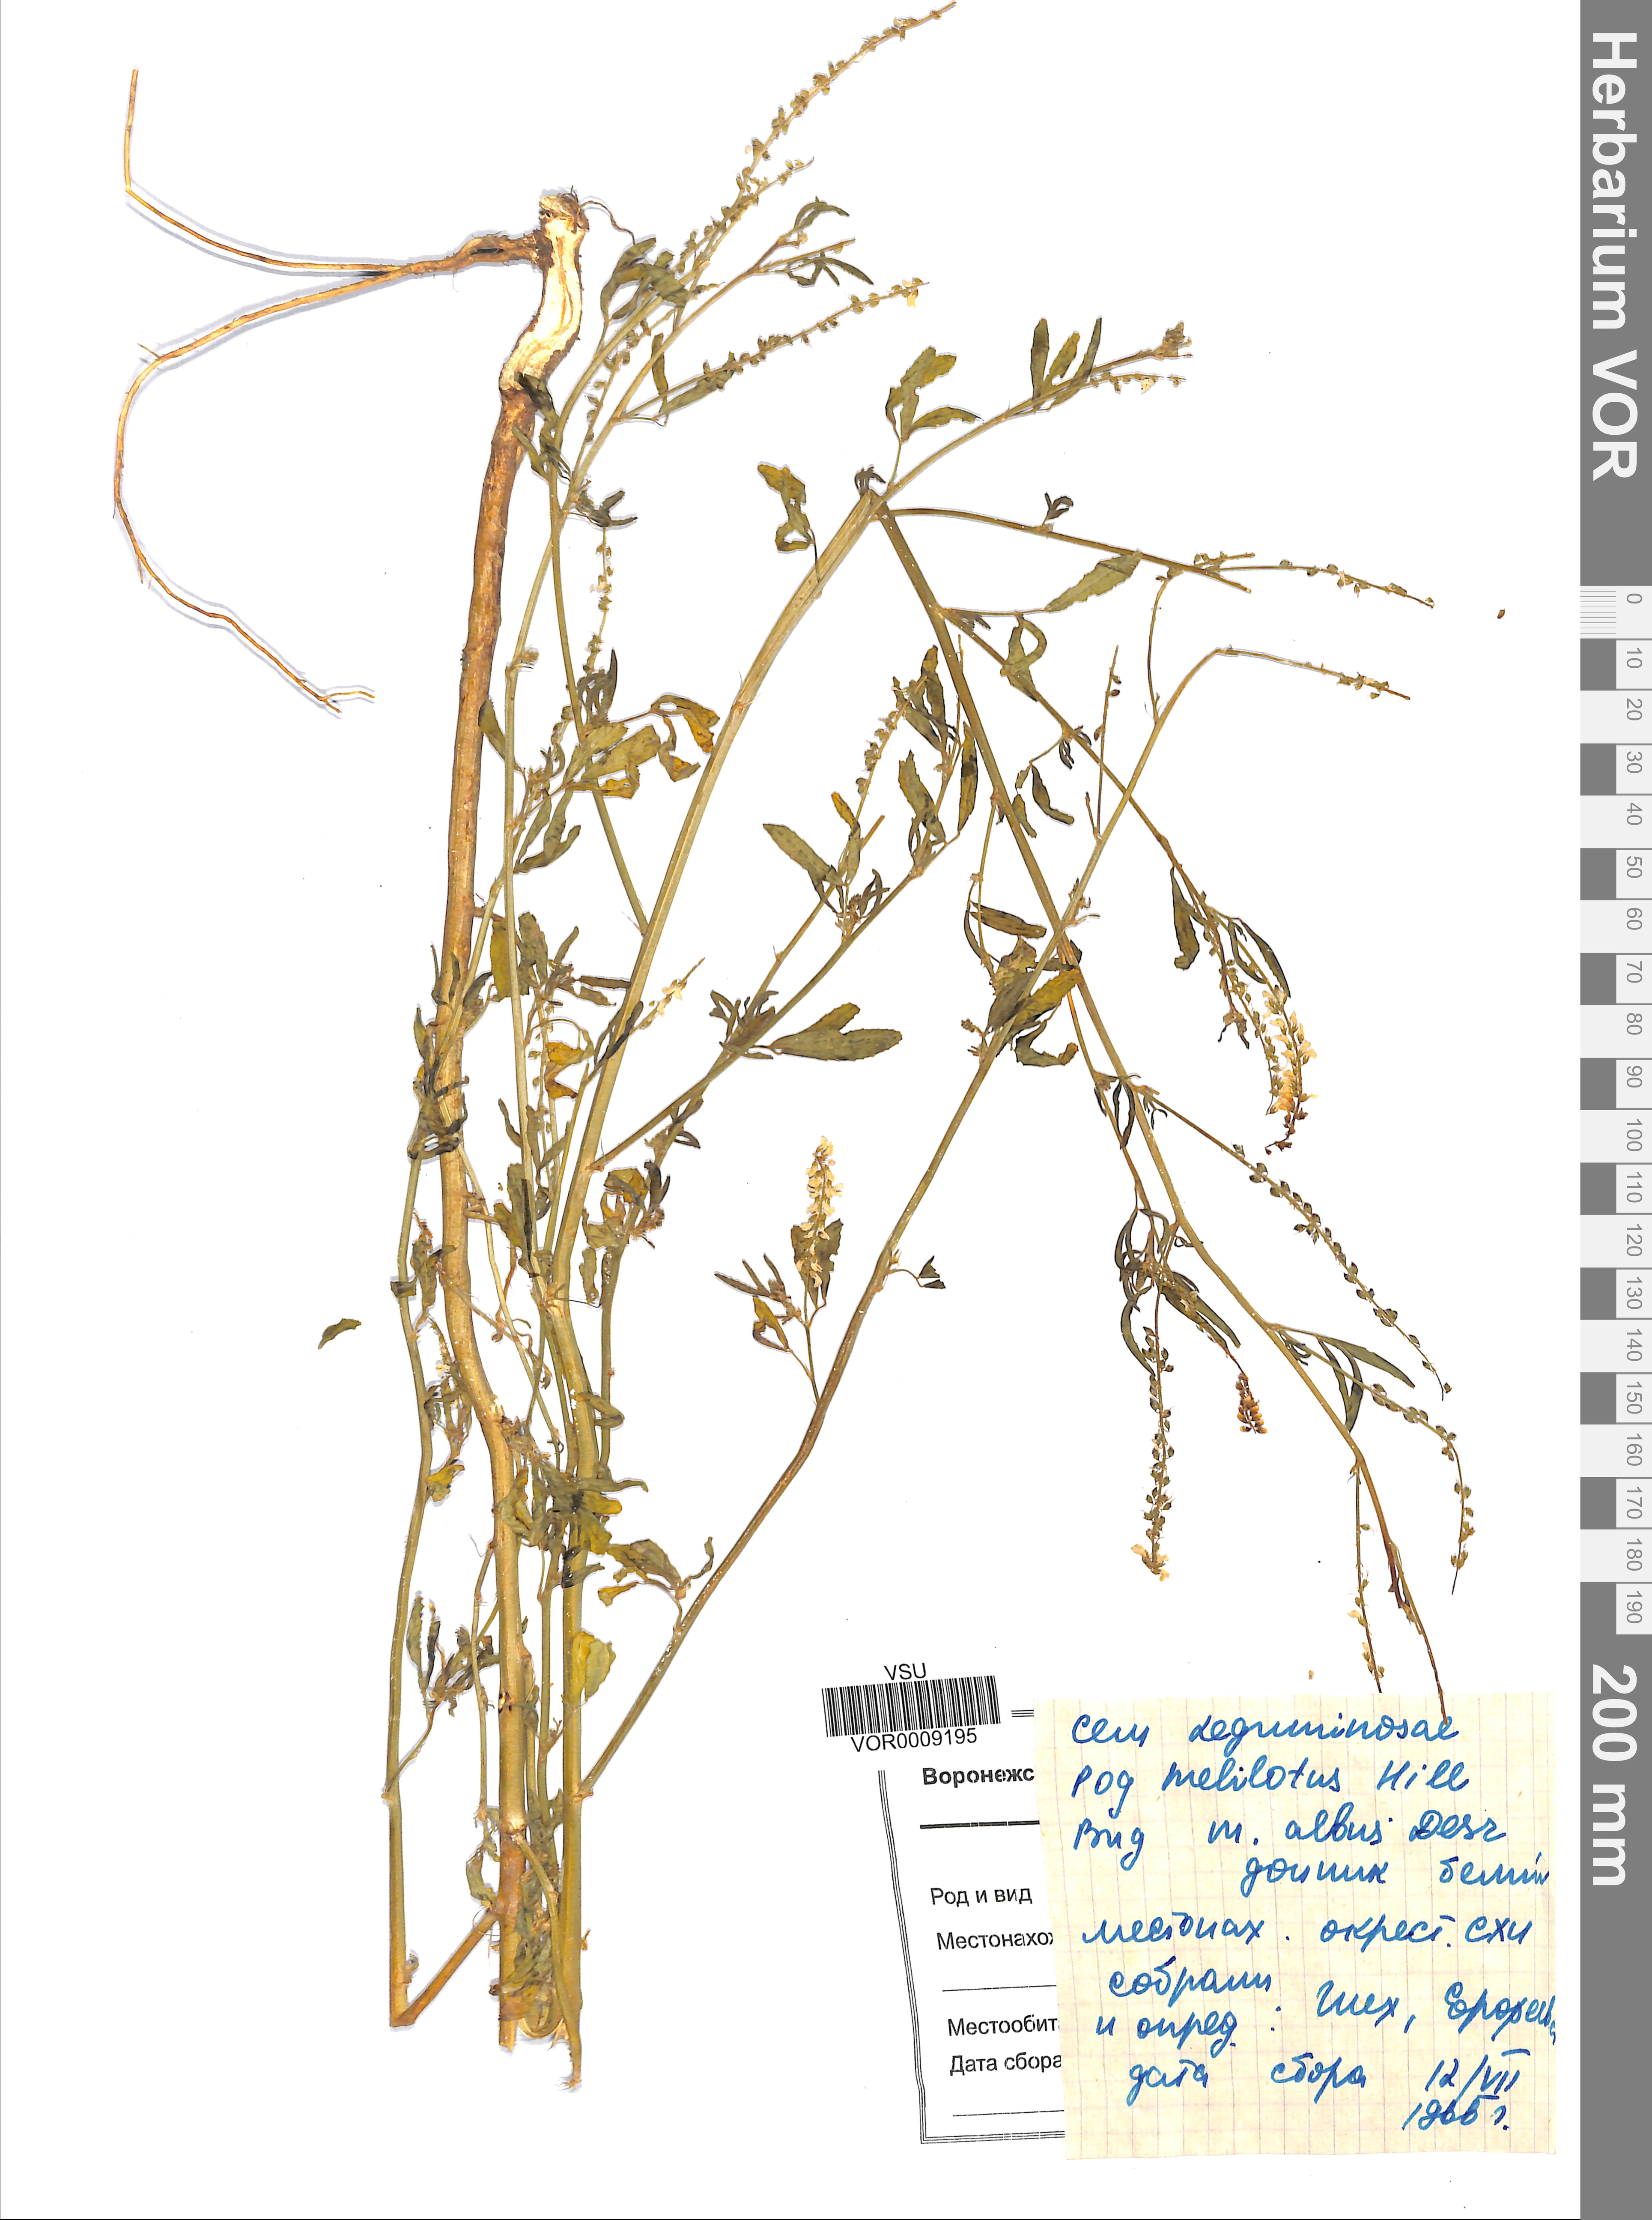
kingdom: Plantae
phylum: Tracheophyta
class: Magnoliopsida
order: Fabales
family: Fabaceae
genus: Melilotus
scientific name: Melilotus albus
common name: White melilot
